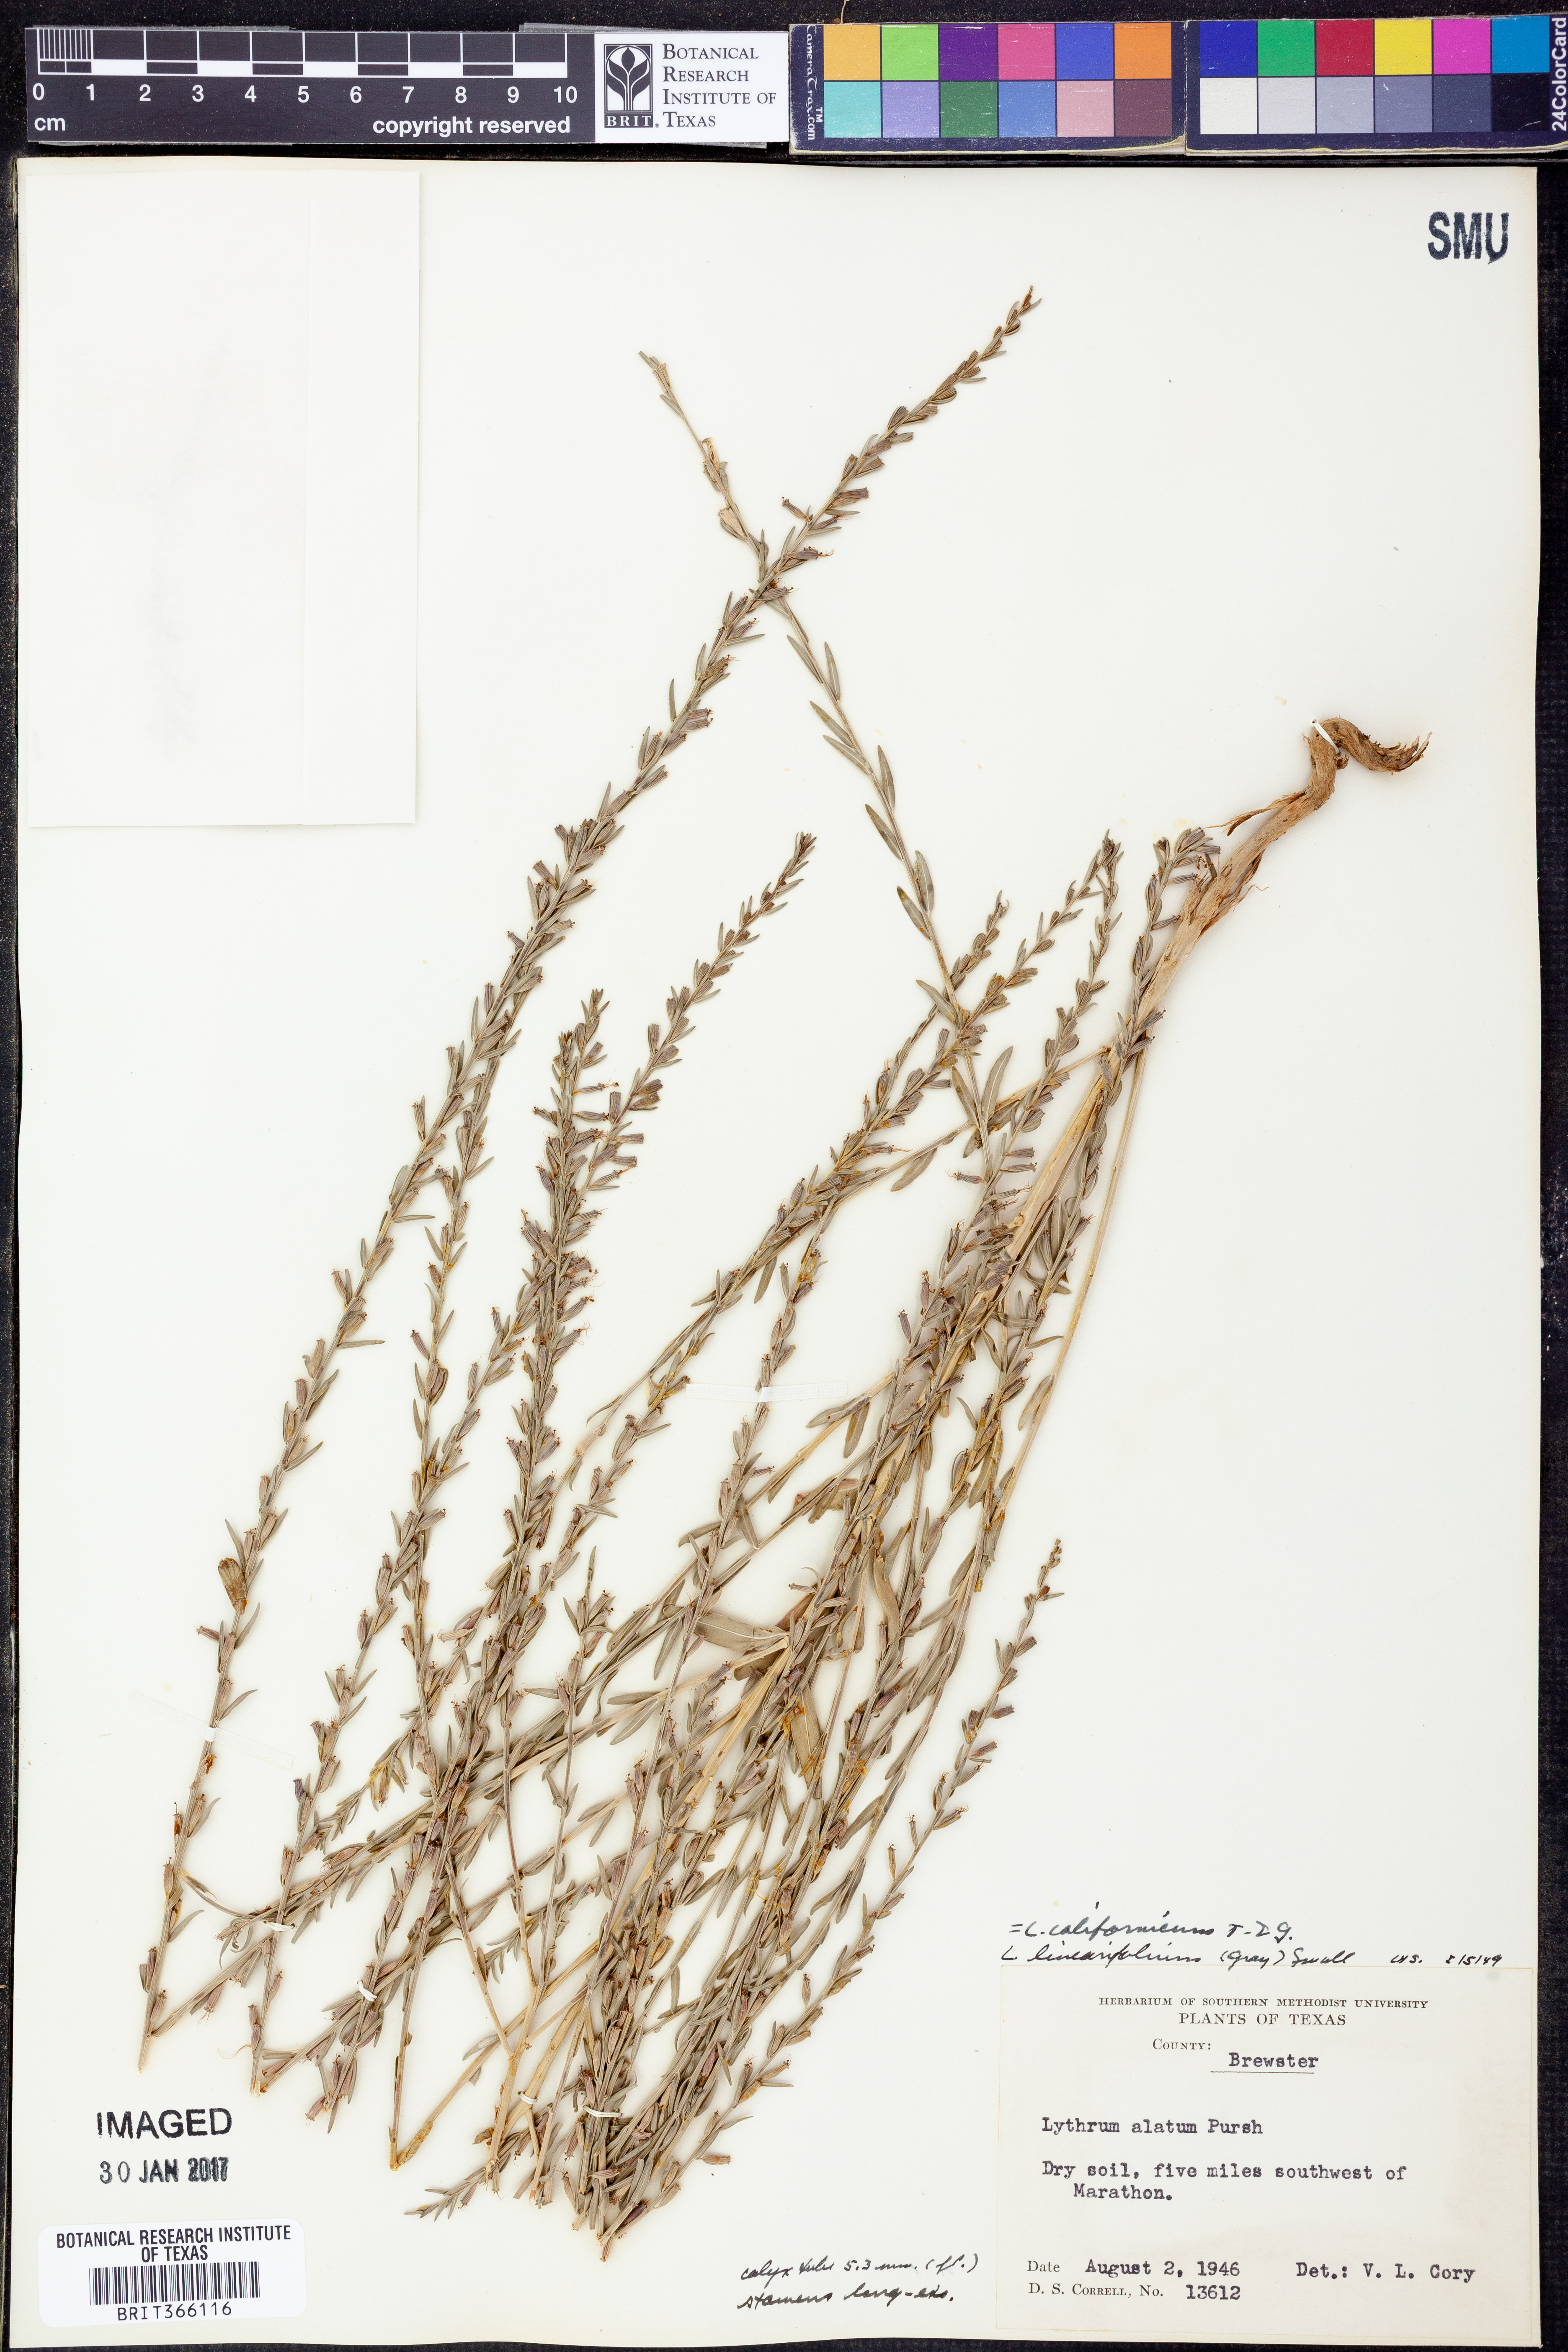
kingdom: Plantae
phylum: Tracheophyta
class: Magnoliopsida
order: Myrtales
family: Lythraceae
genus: Lythrum
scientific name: Lythrum californicum
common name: California loosestrife
